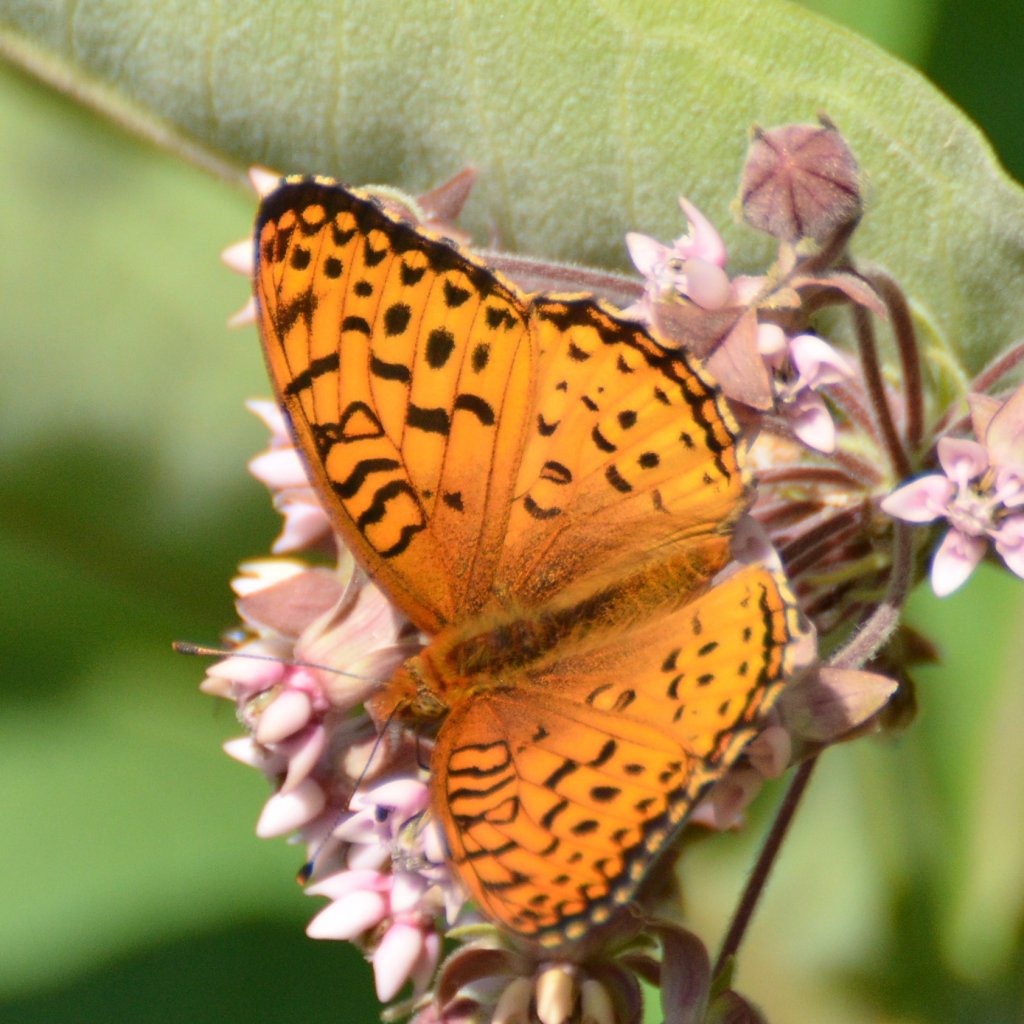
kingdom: Animalia
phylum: Arthropoda
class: Insecta
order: Lepidoptera
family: Nymphalidae
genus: Speyeria
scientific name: Speyeria aphrodite
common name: Aphrodite Fritillary
